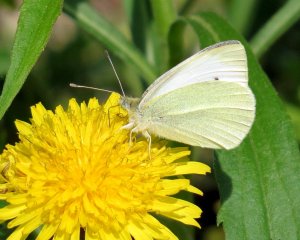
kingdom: Animalia
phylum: Arthropoda
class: Insecta
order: Lepidoptera
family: Pieridae
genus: Pieris
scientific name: Pieris rapae
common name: Cabbage White
